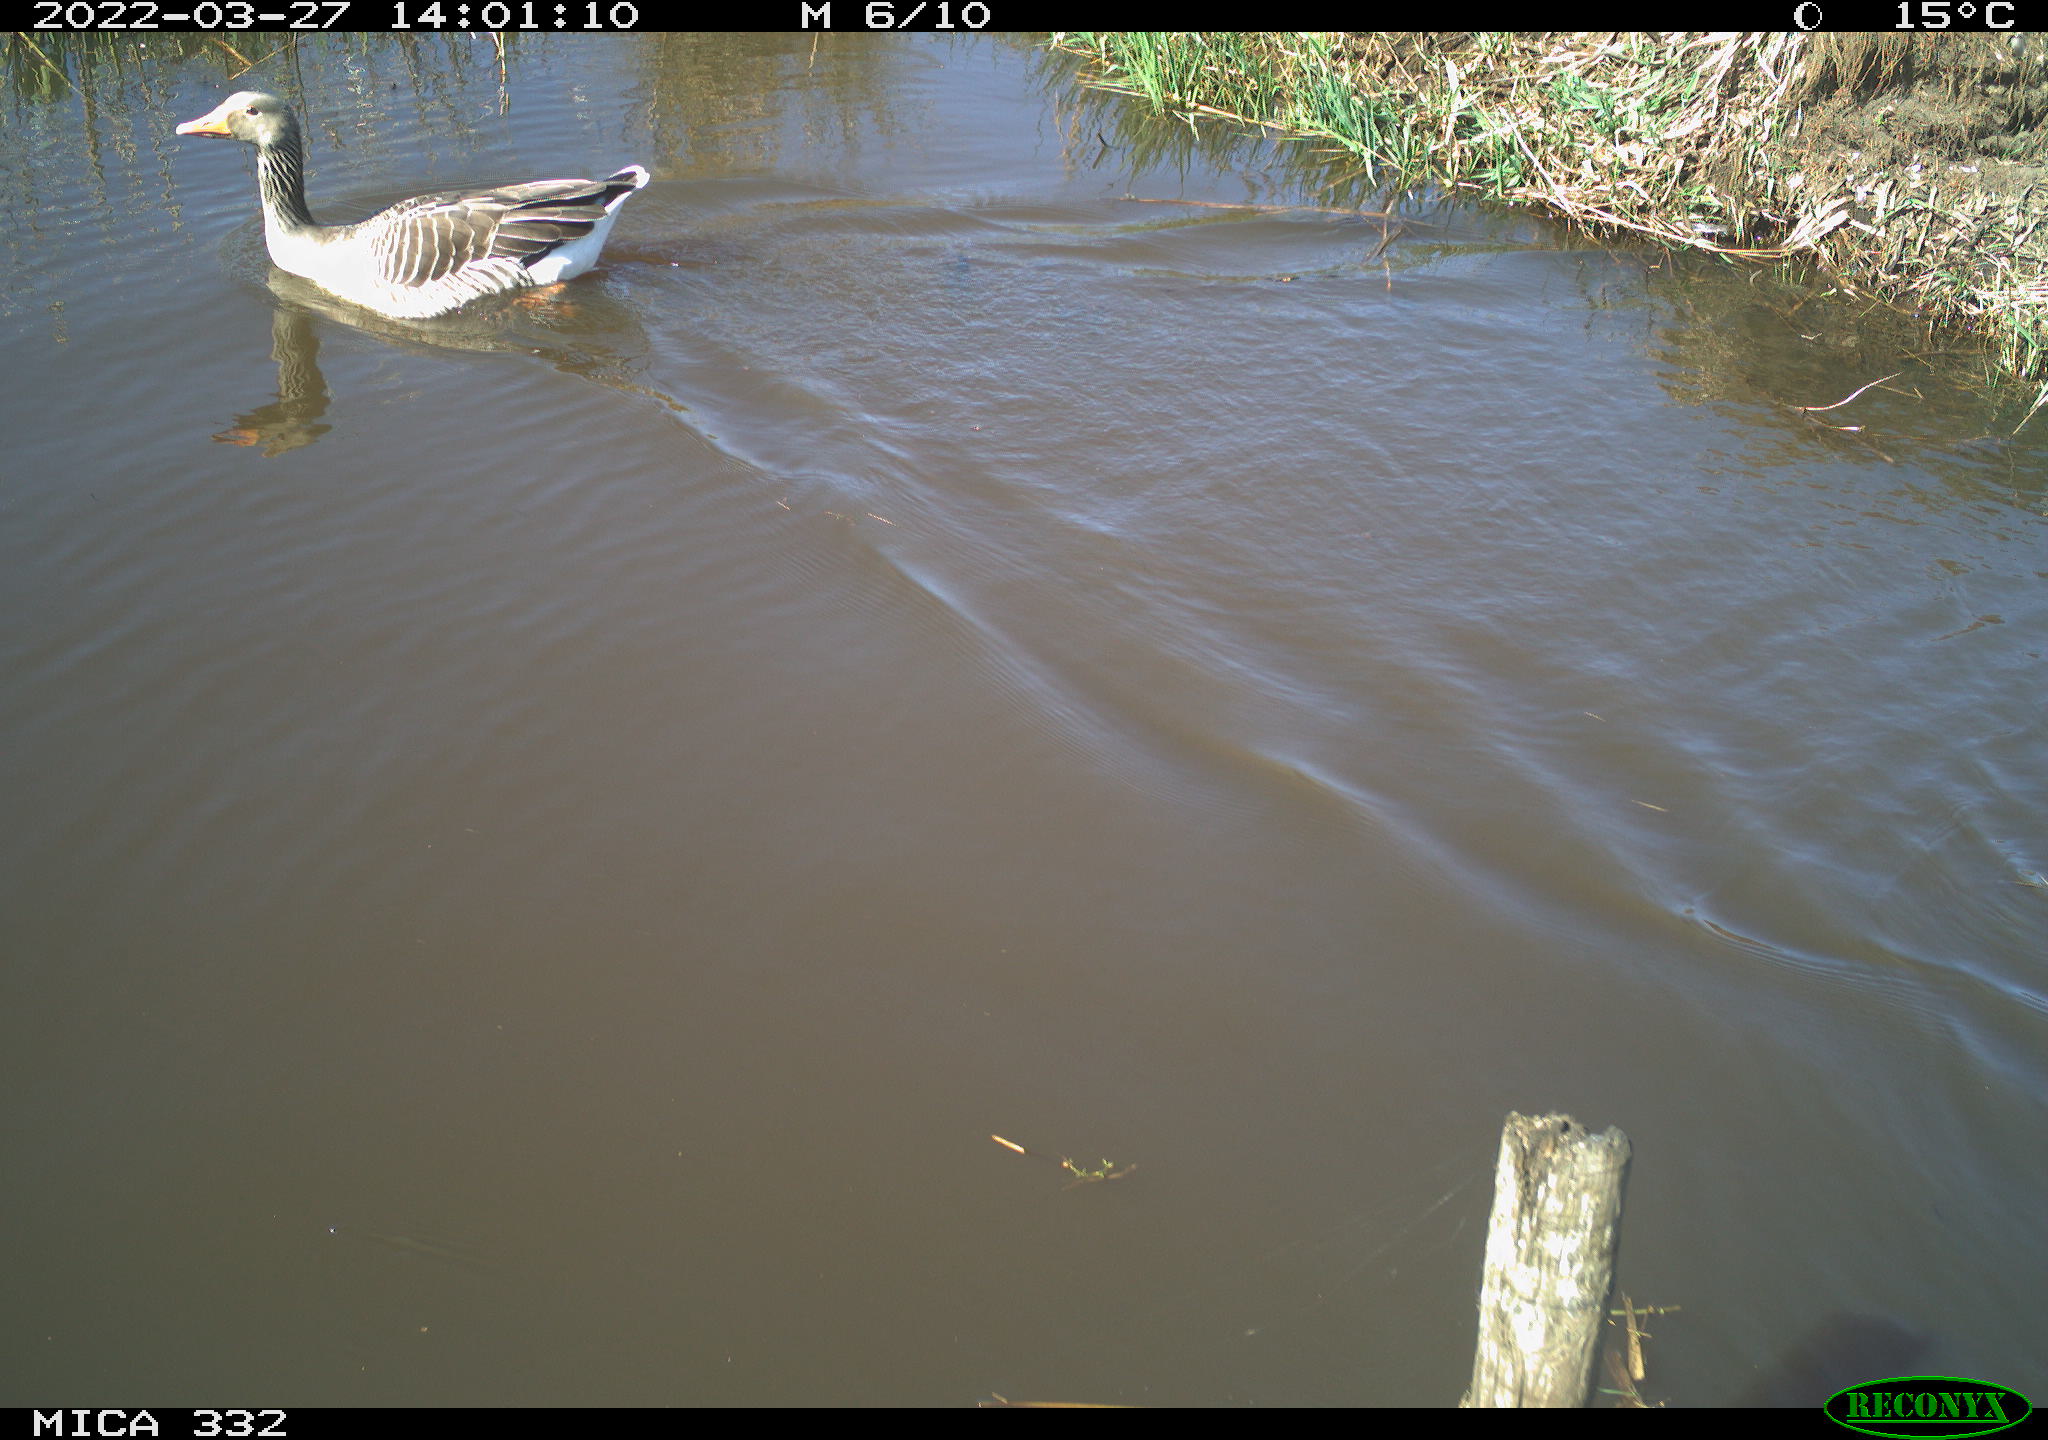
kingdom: Animalia
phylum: Chordata
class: Aves
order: Anseriformes
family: Anatidae
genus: Anser
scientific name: Anser anser
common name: Greylag goose
